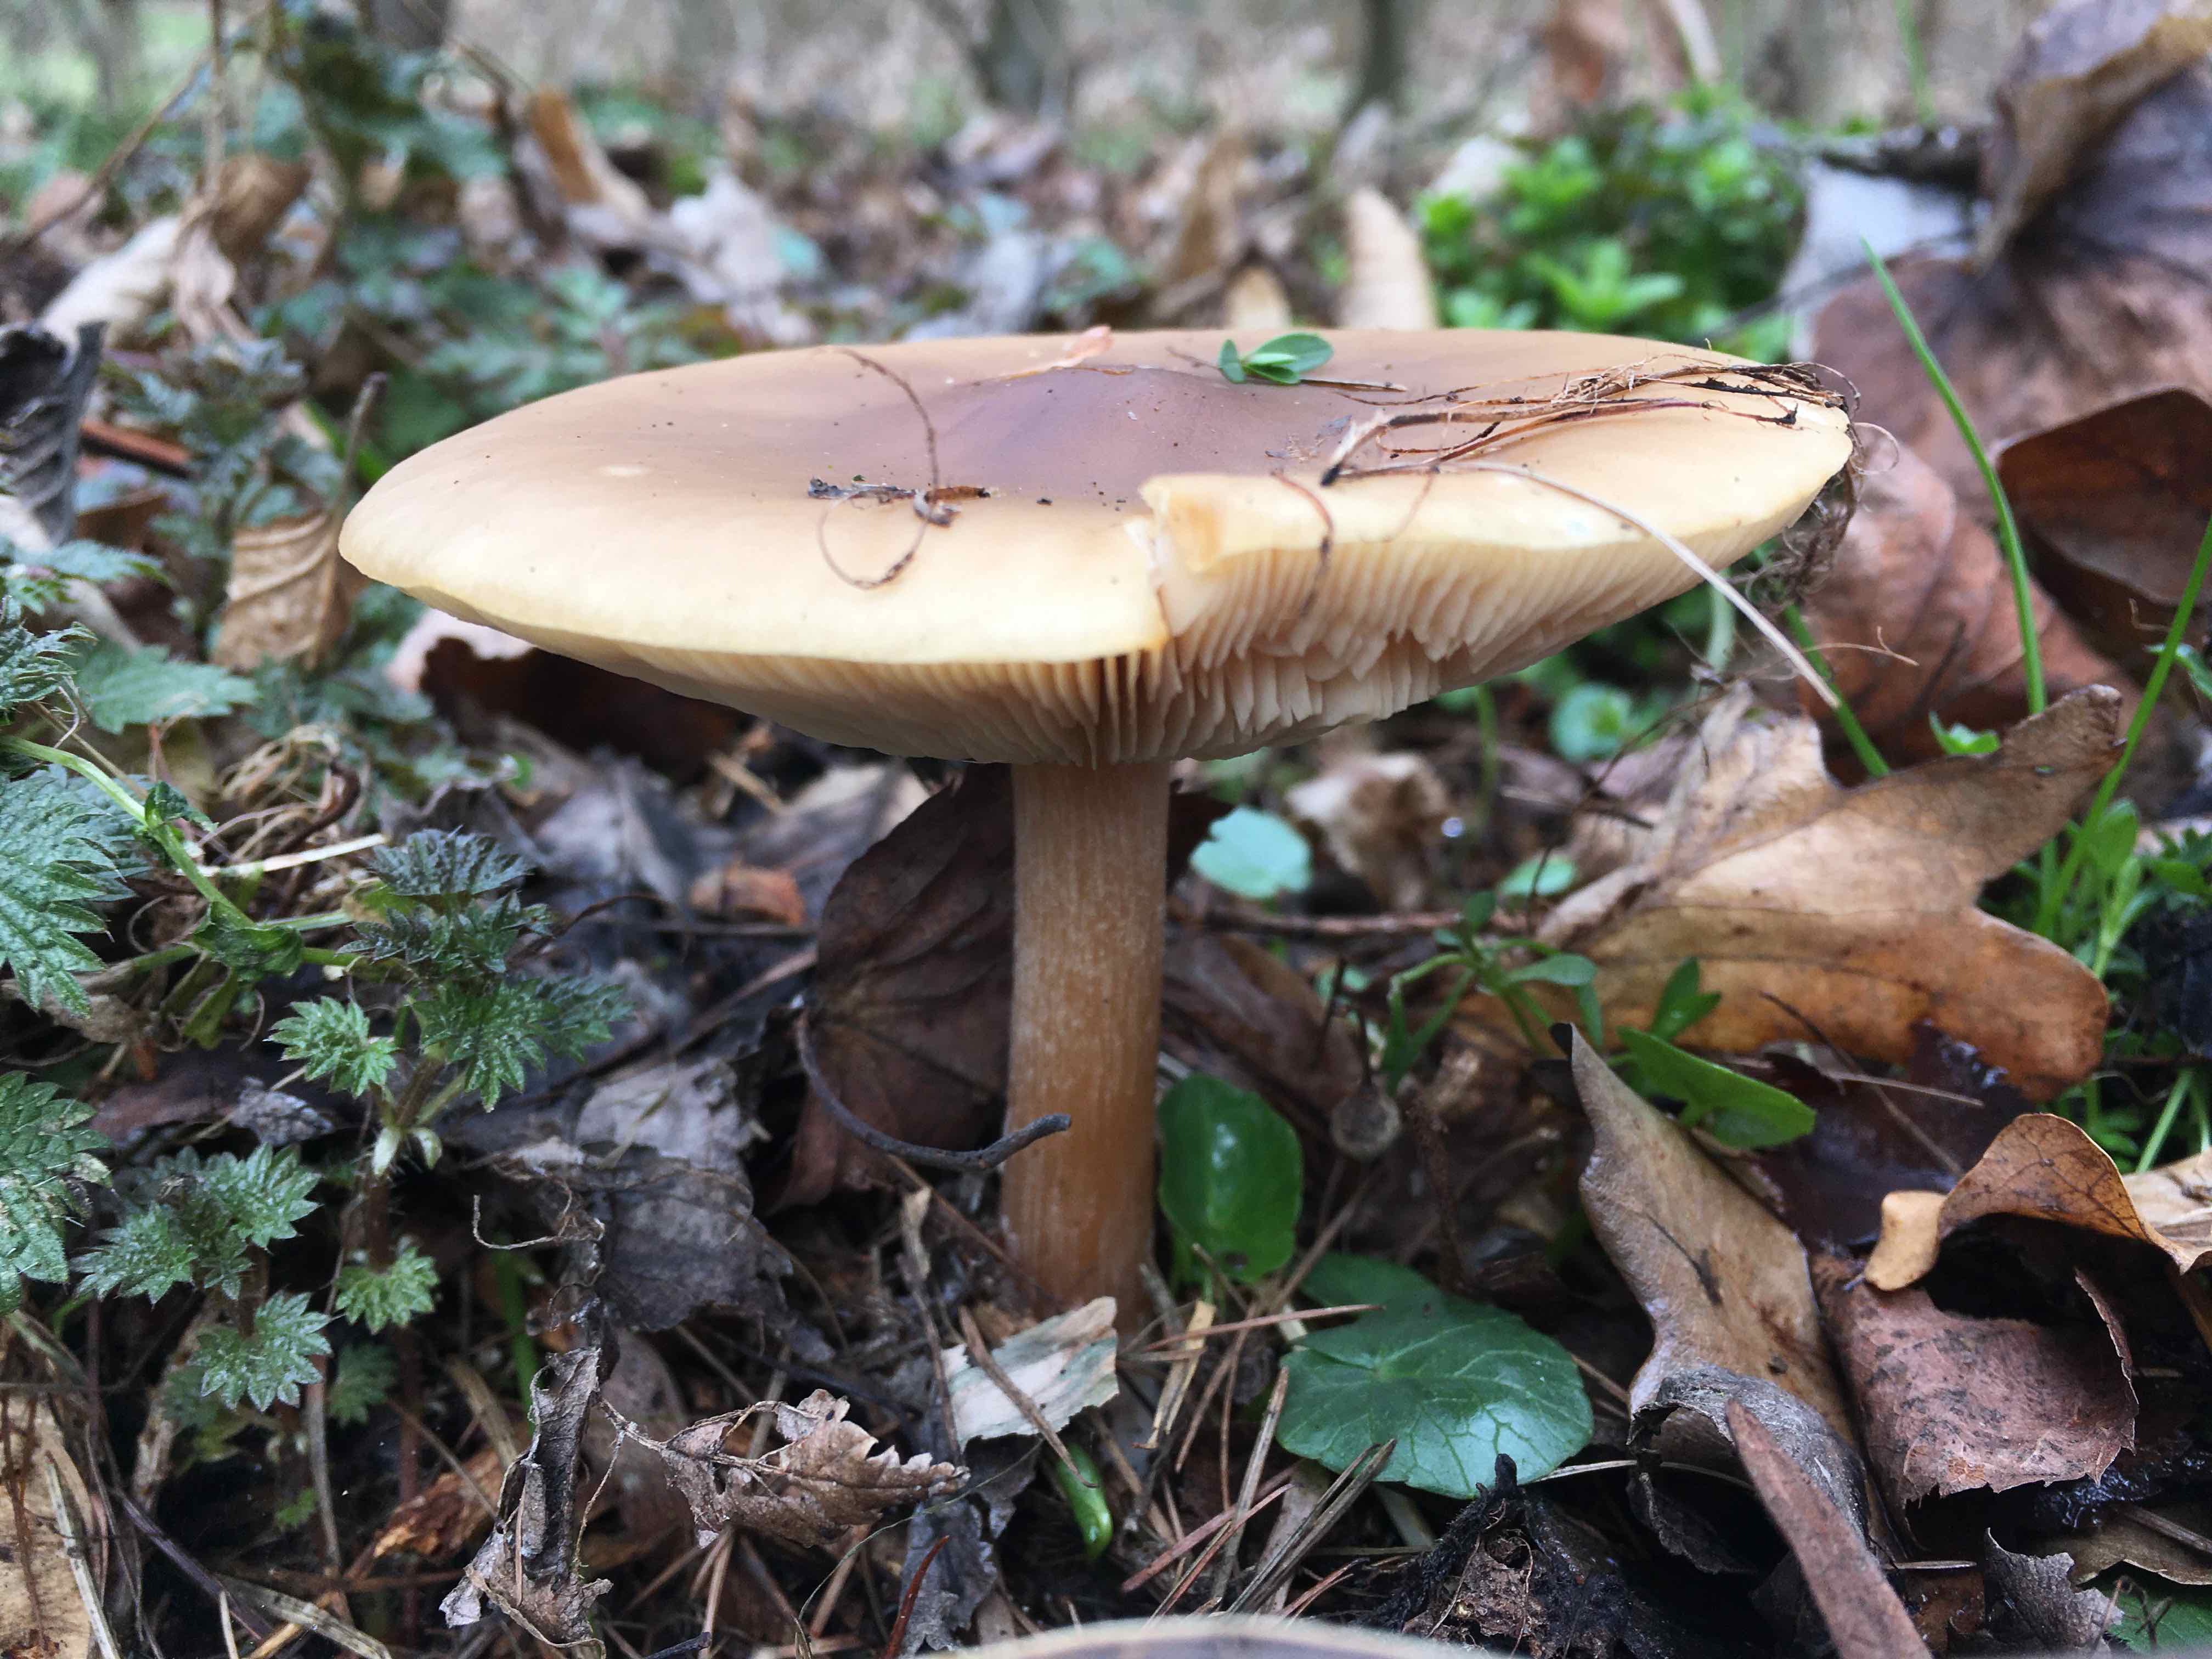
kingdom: Fungi
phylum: Basidiomycota
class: Agaricomycetes
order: Agaricales
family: Tricholomataceae
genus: Melanoleuca
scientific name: Melanoleuca cognata
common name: gyldengrå munkehat
